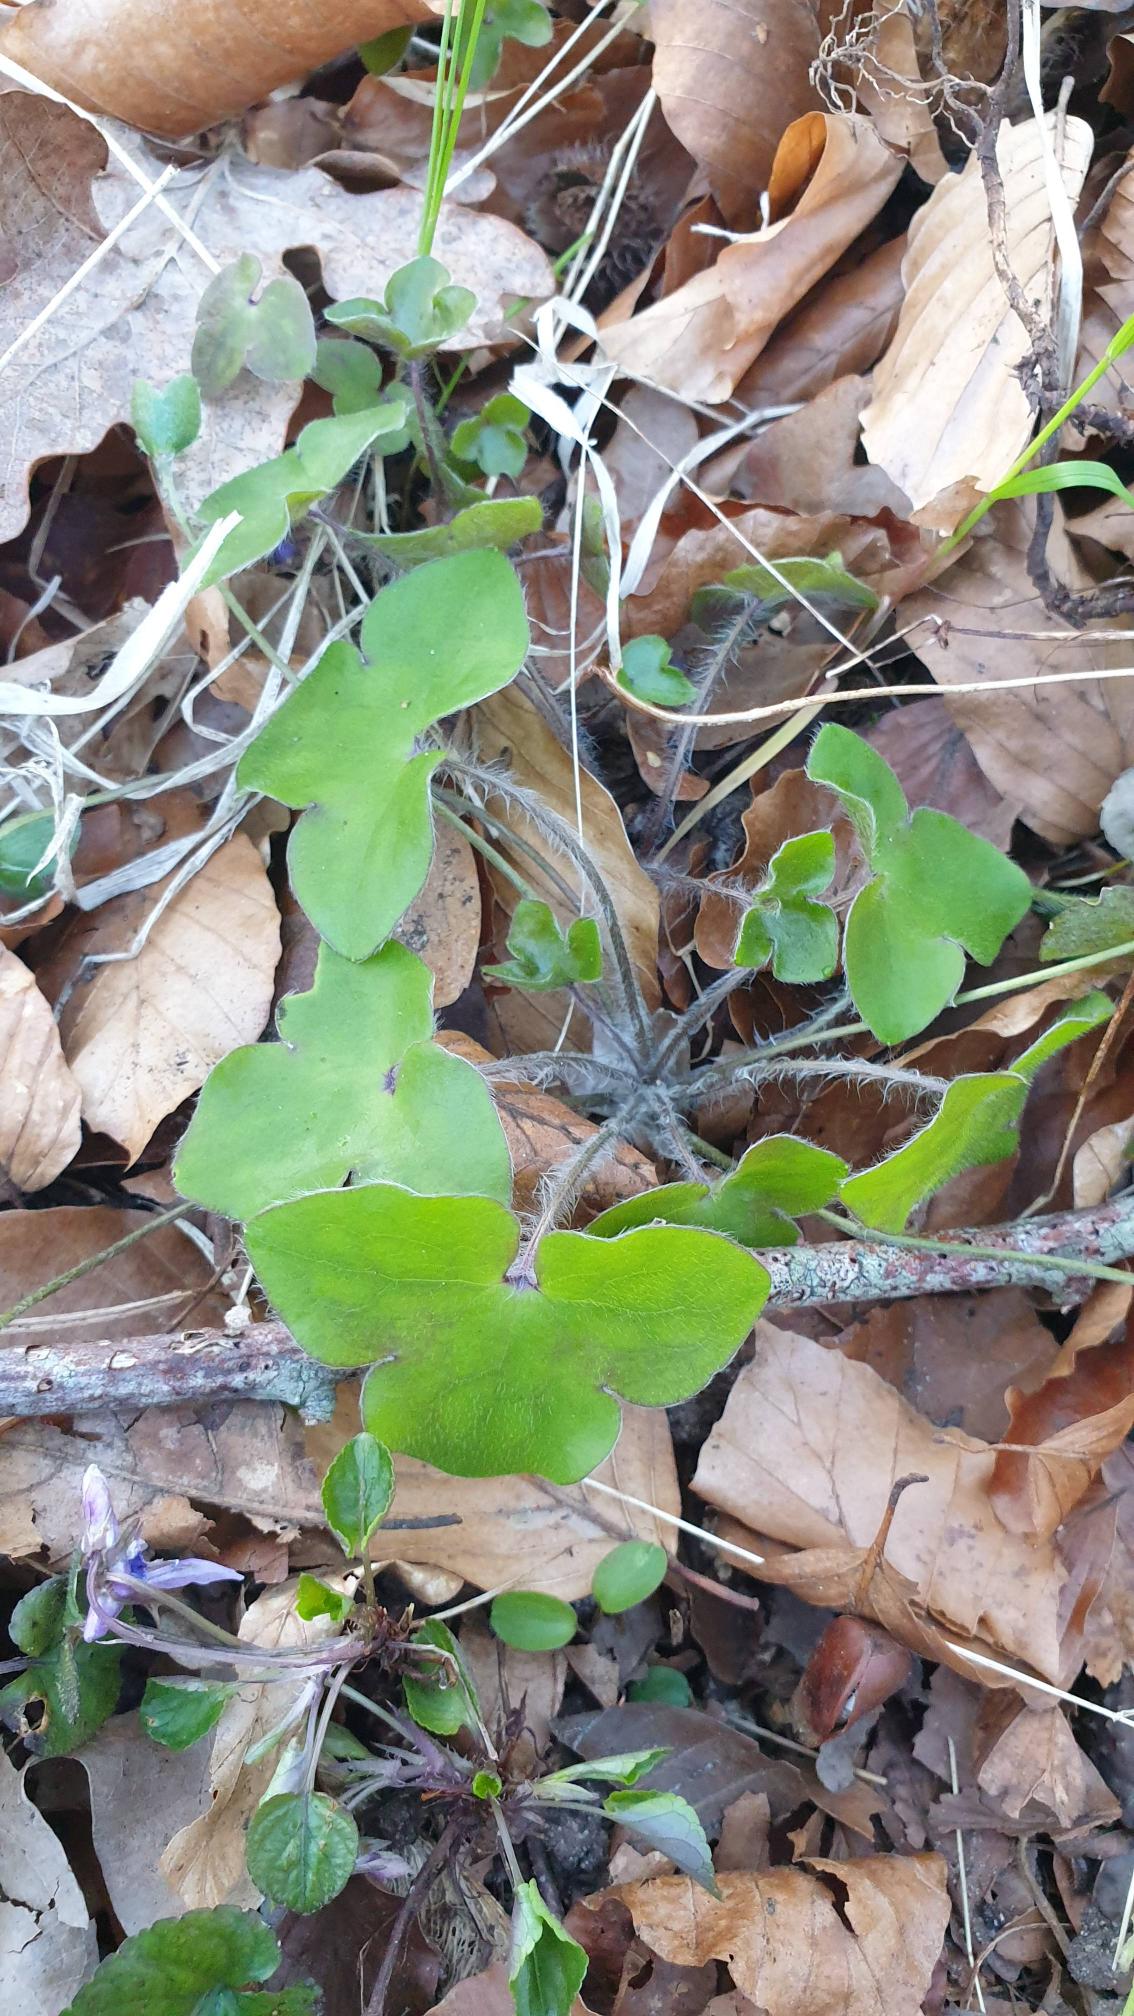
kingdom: Plantae
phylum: Tracheophyta
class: Magnoliopsida
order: Ranunculales
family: Ranunculaceae
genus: Hepatica
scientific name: Hepatica nobilis
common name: Blå anemone
